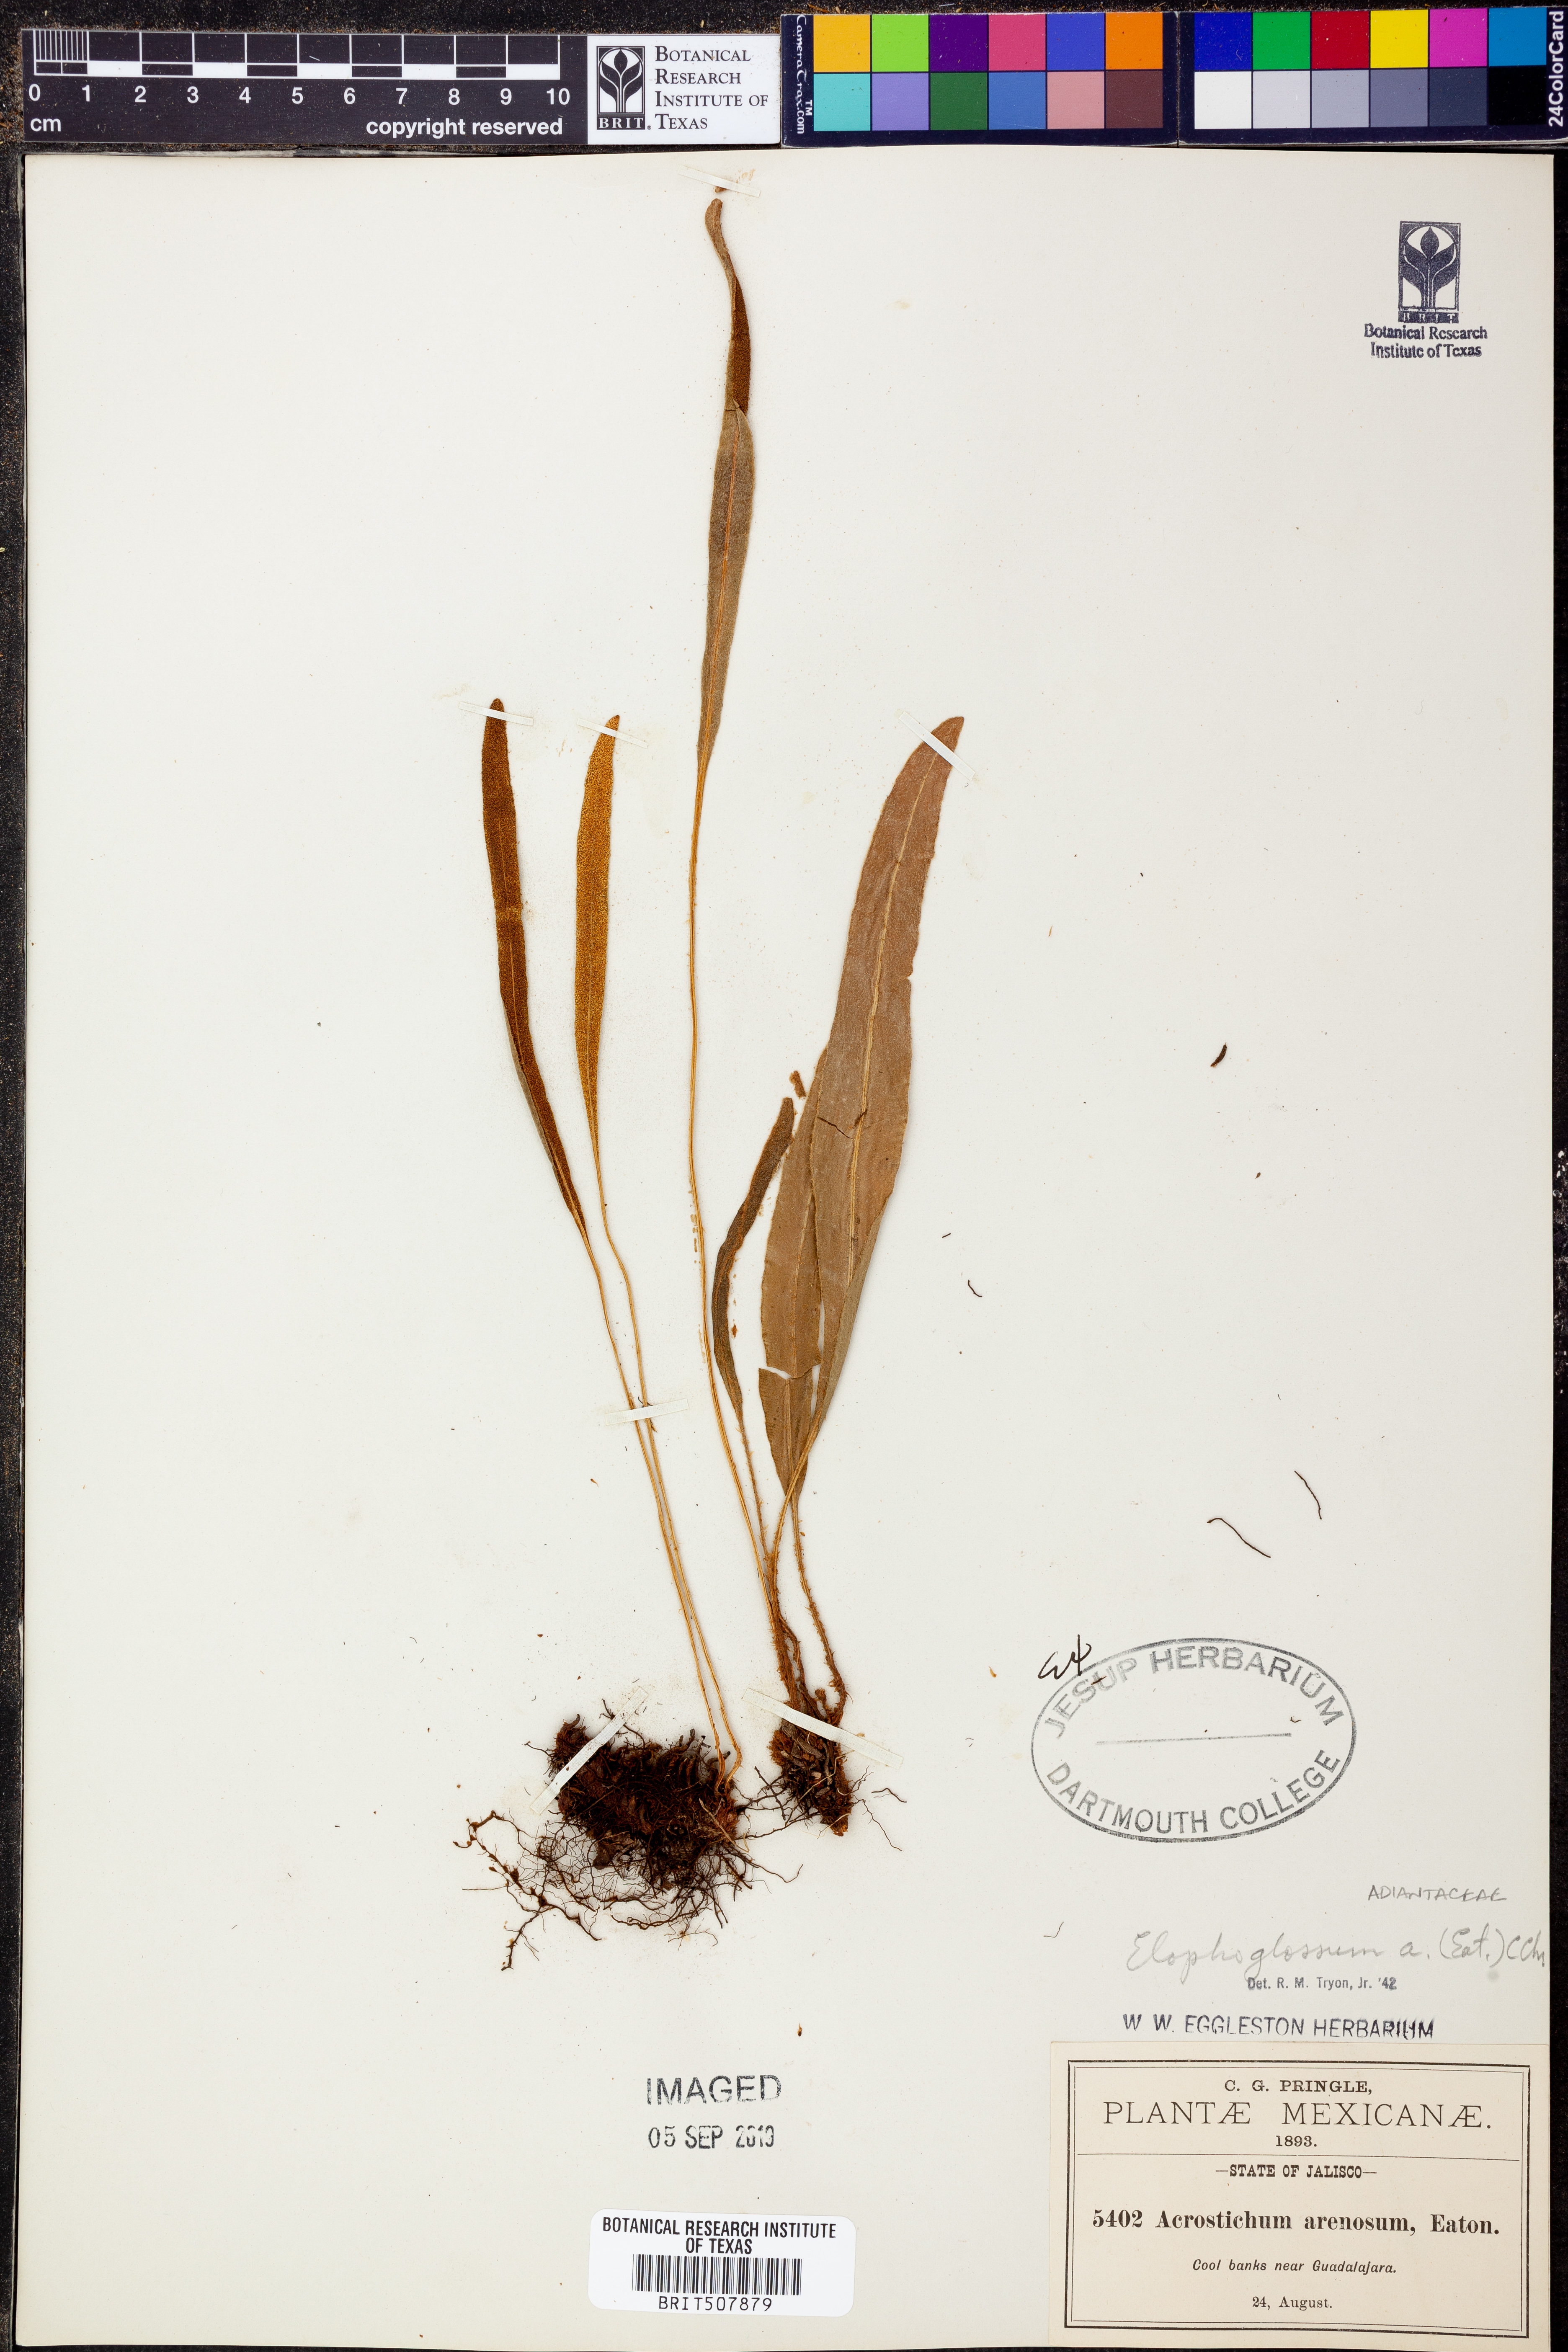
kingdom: Plantae
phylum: Tracheophyta
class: Polypodiopsida
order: Polypodiales
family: Dryopteridaceae
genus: Elaphoglossum
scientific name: Elaphoglossum muelleri
